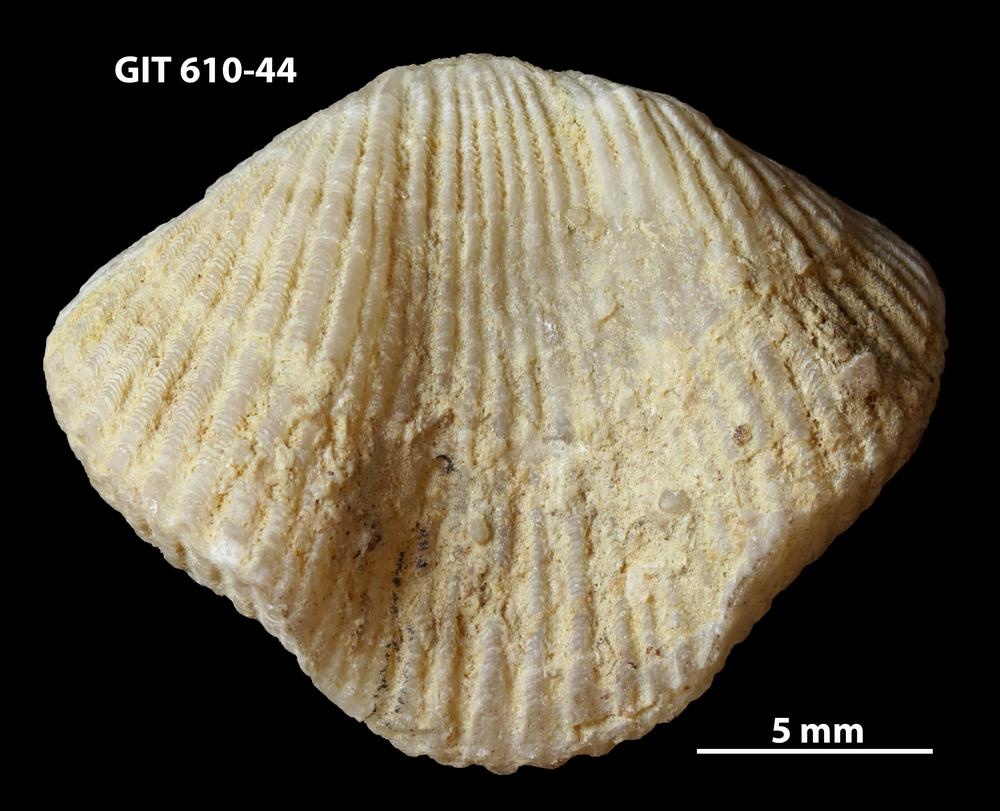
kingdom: Animalia
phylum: Brachiopoda
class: Rhynchonellata
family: Triplesiidae
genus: Cliftonia
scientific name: Cliftonia
